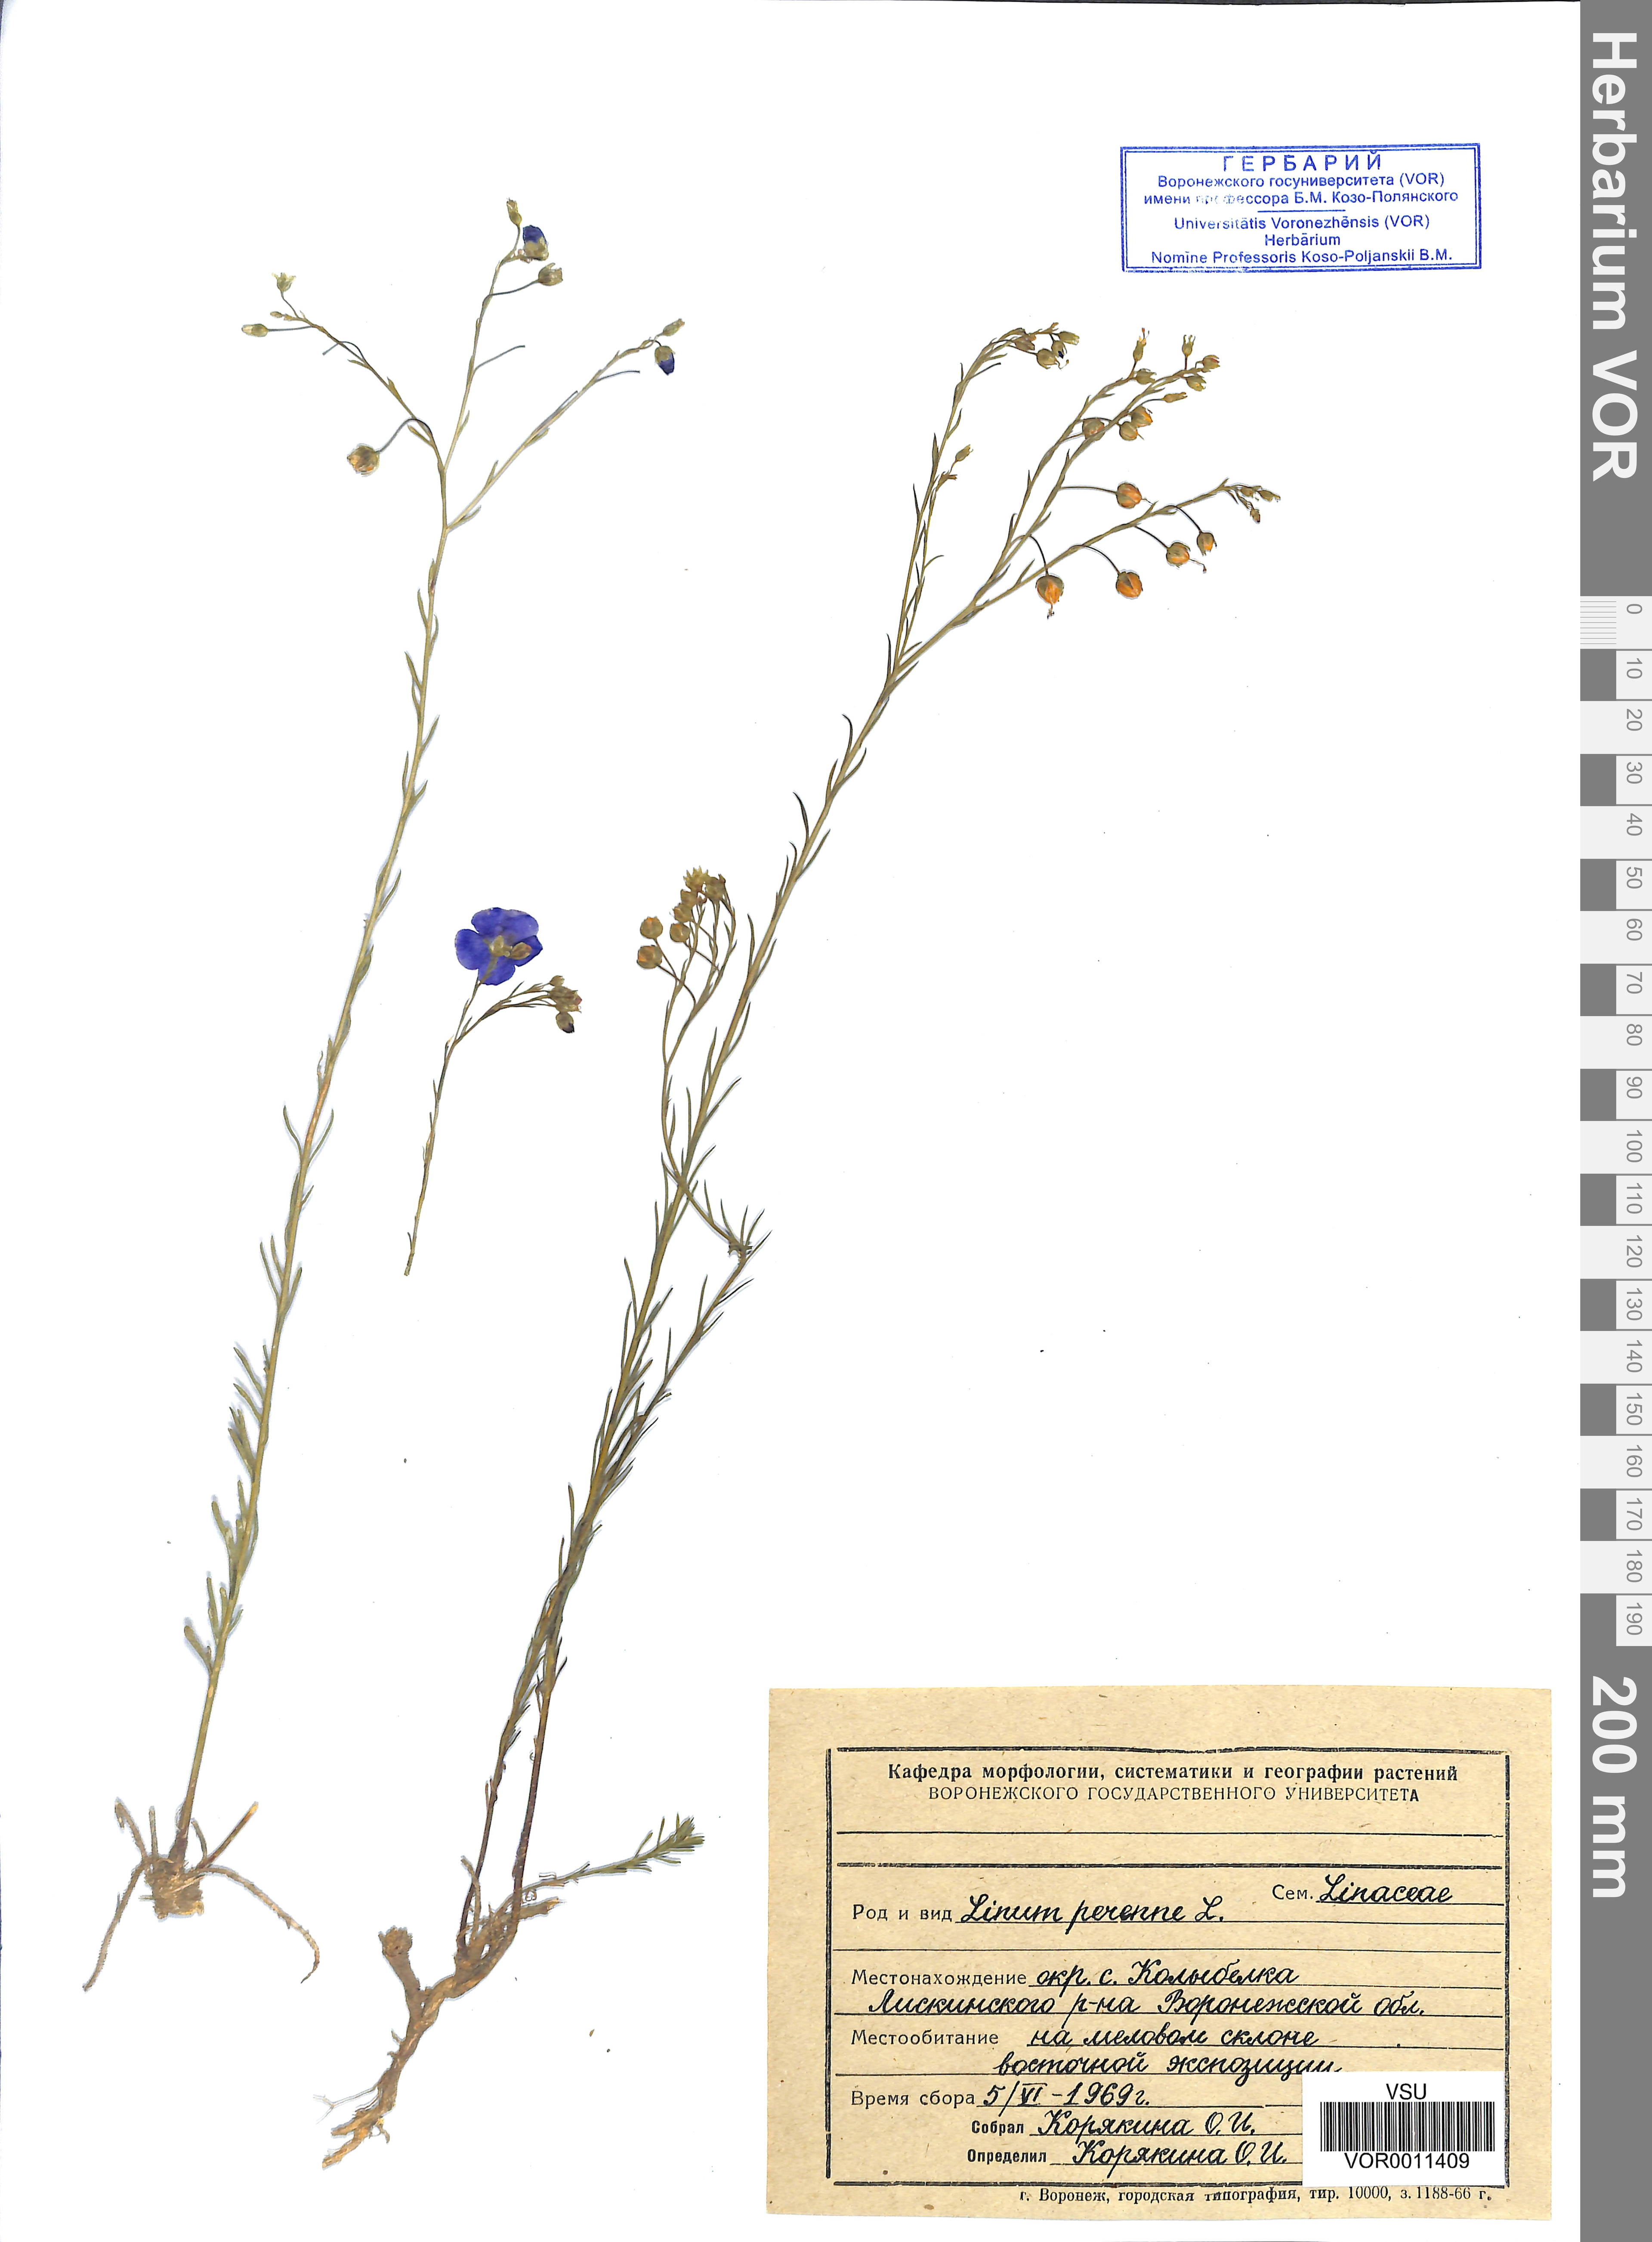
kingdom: Plantae
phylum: Tracheophyta
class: Magnoliopsida
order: Malpighiales
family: Linaceae
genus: Linum
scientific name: Linum perenne
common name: Blue flax
